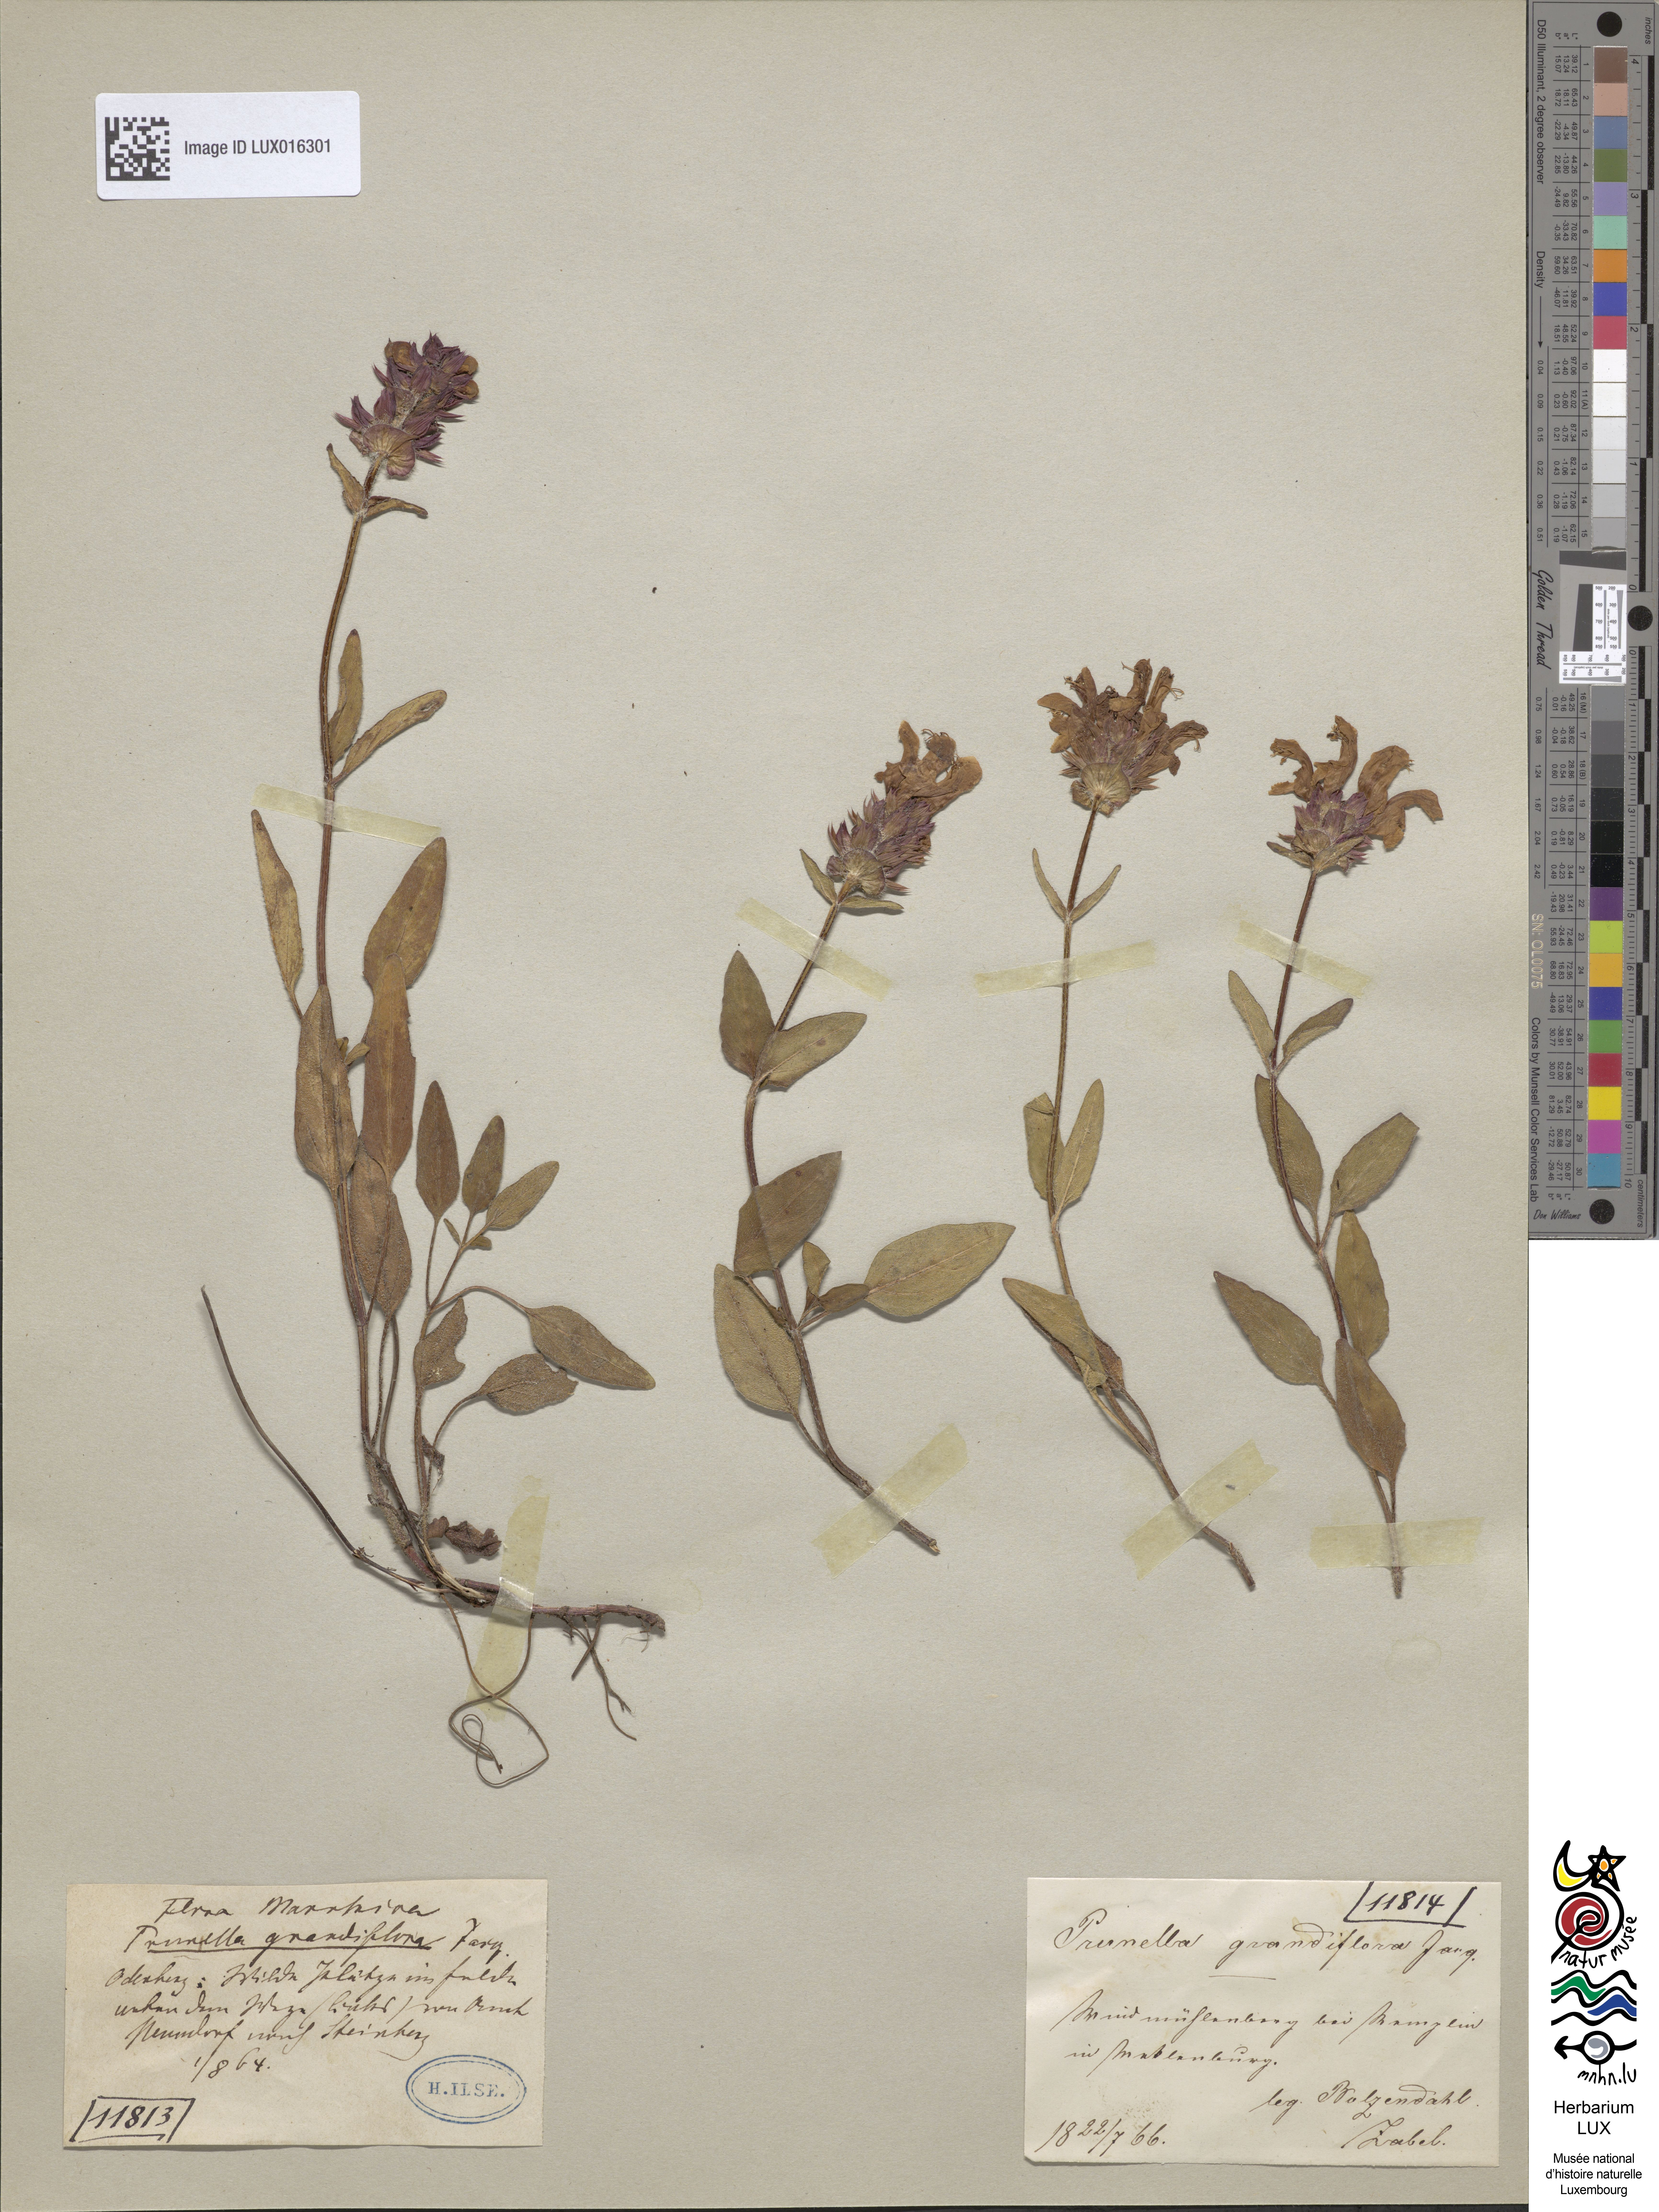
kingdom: Plantae
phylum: Tracheophyta
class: Magnoliopsida
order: Lamiales
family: Lamiaceae
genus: Prunella
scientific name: Prunella grandiflora
